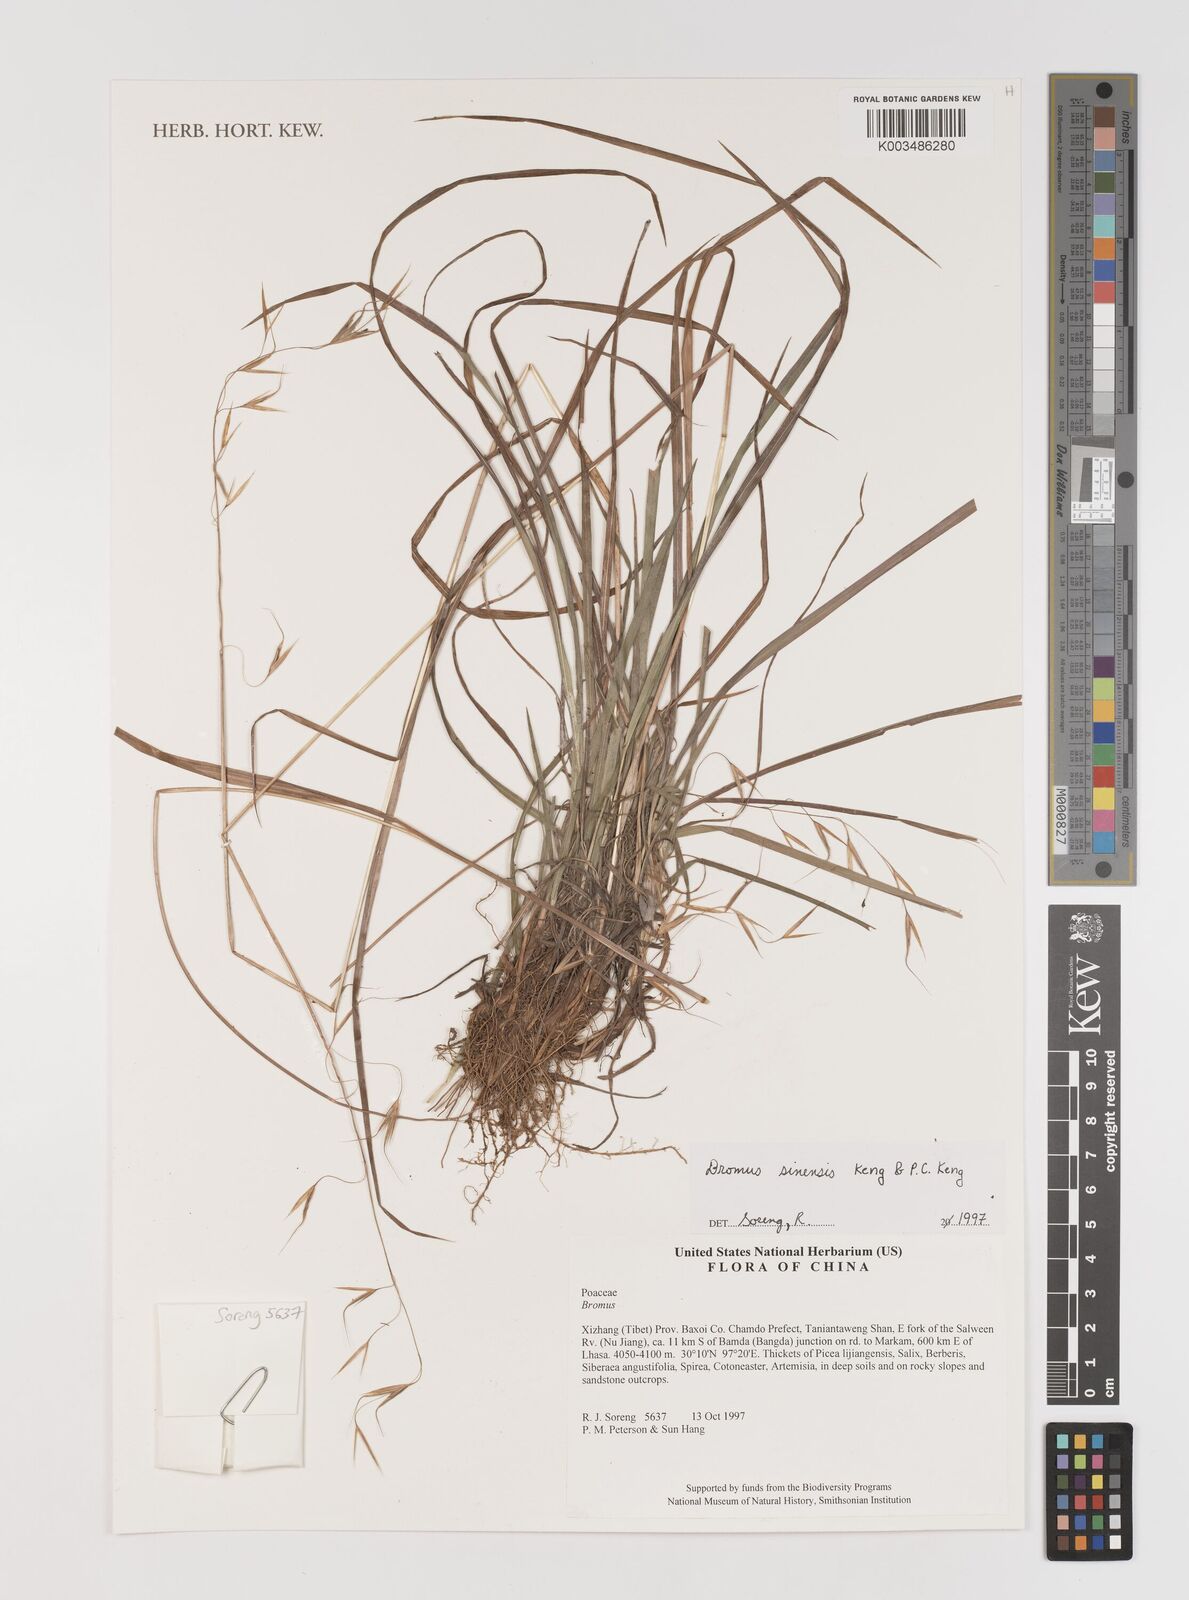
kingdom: Plantae
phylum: Tracheophyta
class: Liliopsida
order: Poales
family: Poaceae
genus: Bromus
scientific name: Bromus
